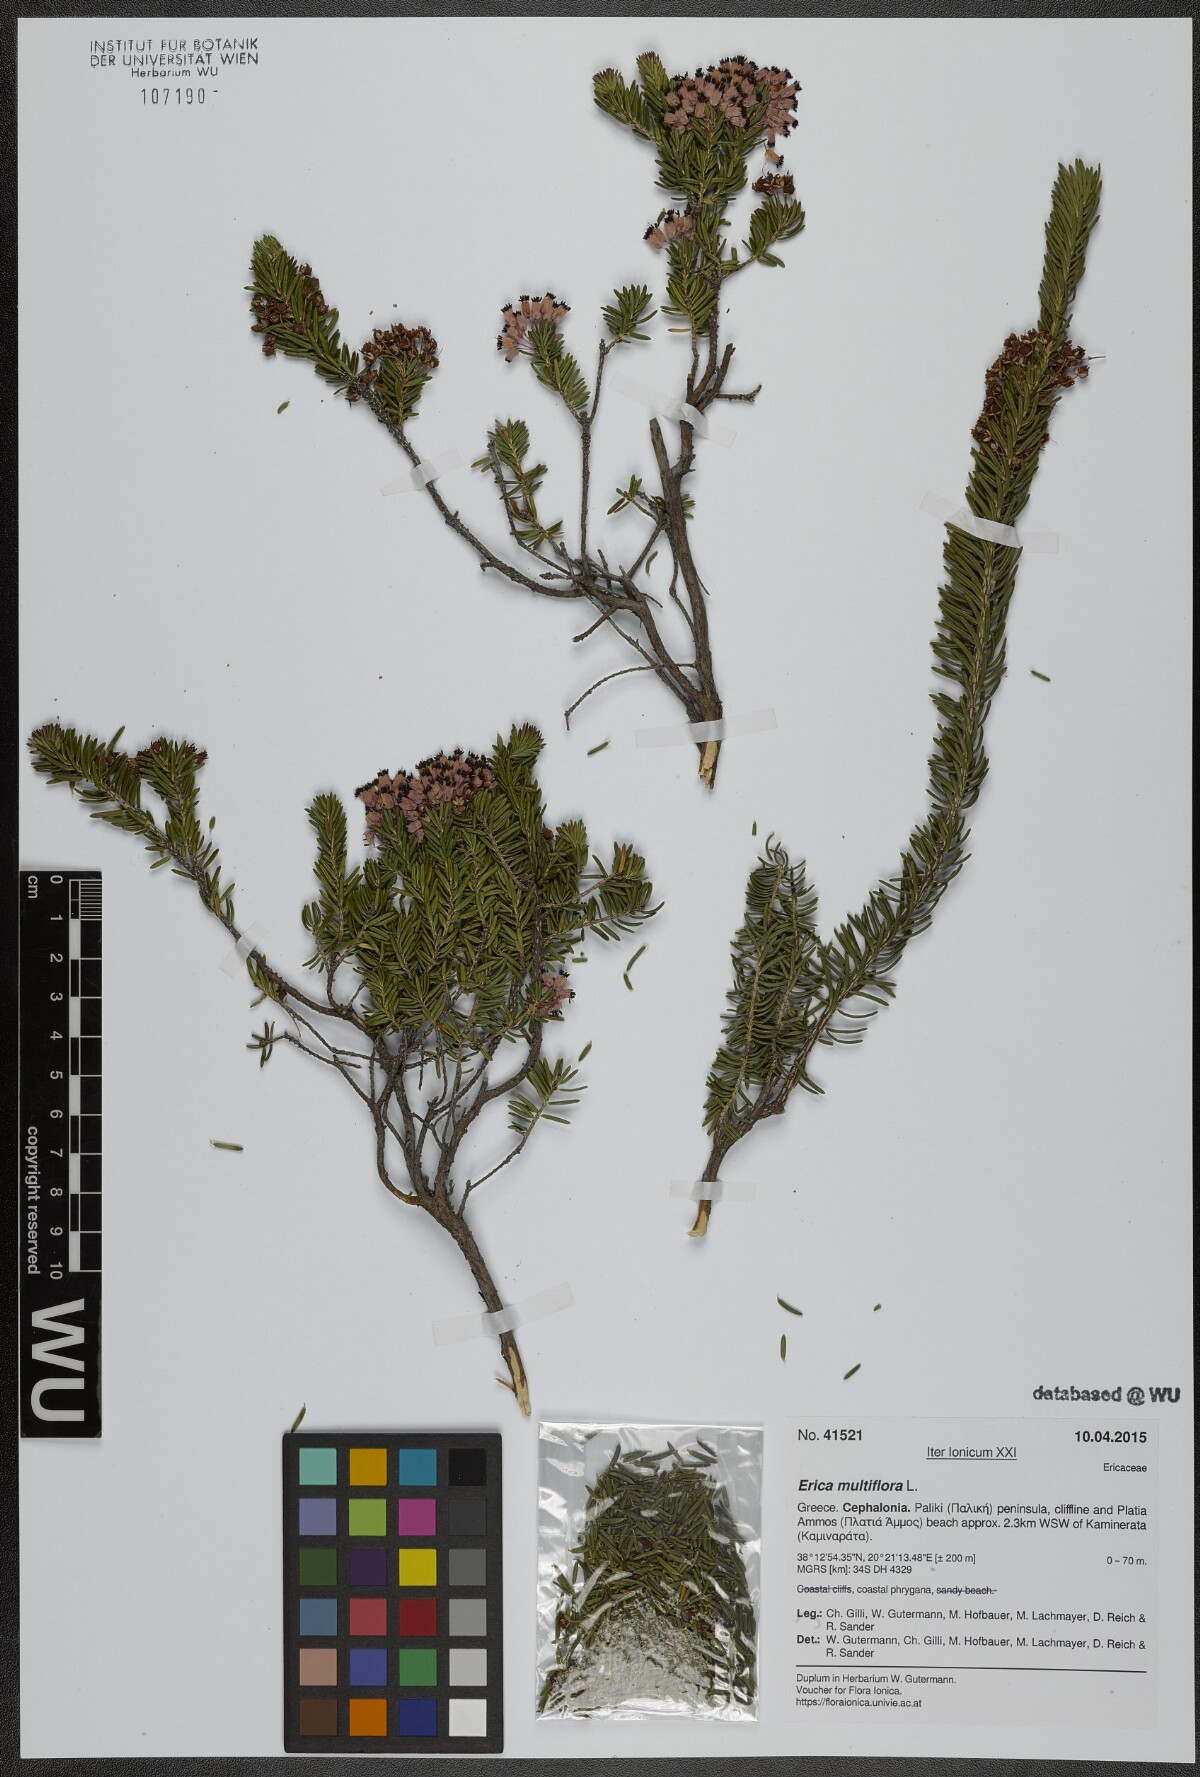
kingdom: Plantae
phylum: Tracheophyta
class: Magnoliopsida
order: Ericales
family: Ericaceae
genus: Erica
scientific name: Erica multiflora
